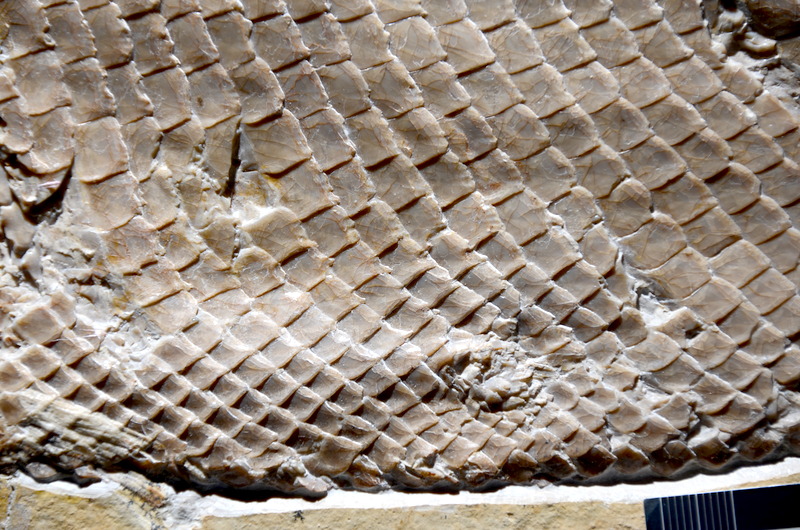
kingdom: Animalia
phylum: Chordata
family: Callipurbeckiidae
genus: Callipurbeckia
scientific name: Callipurbeckia notopterus
